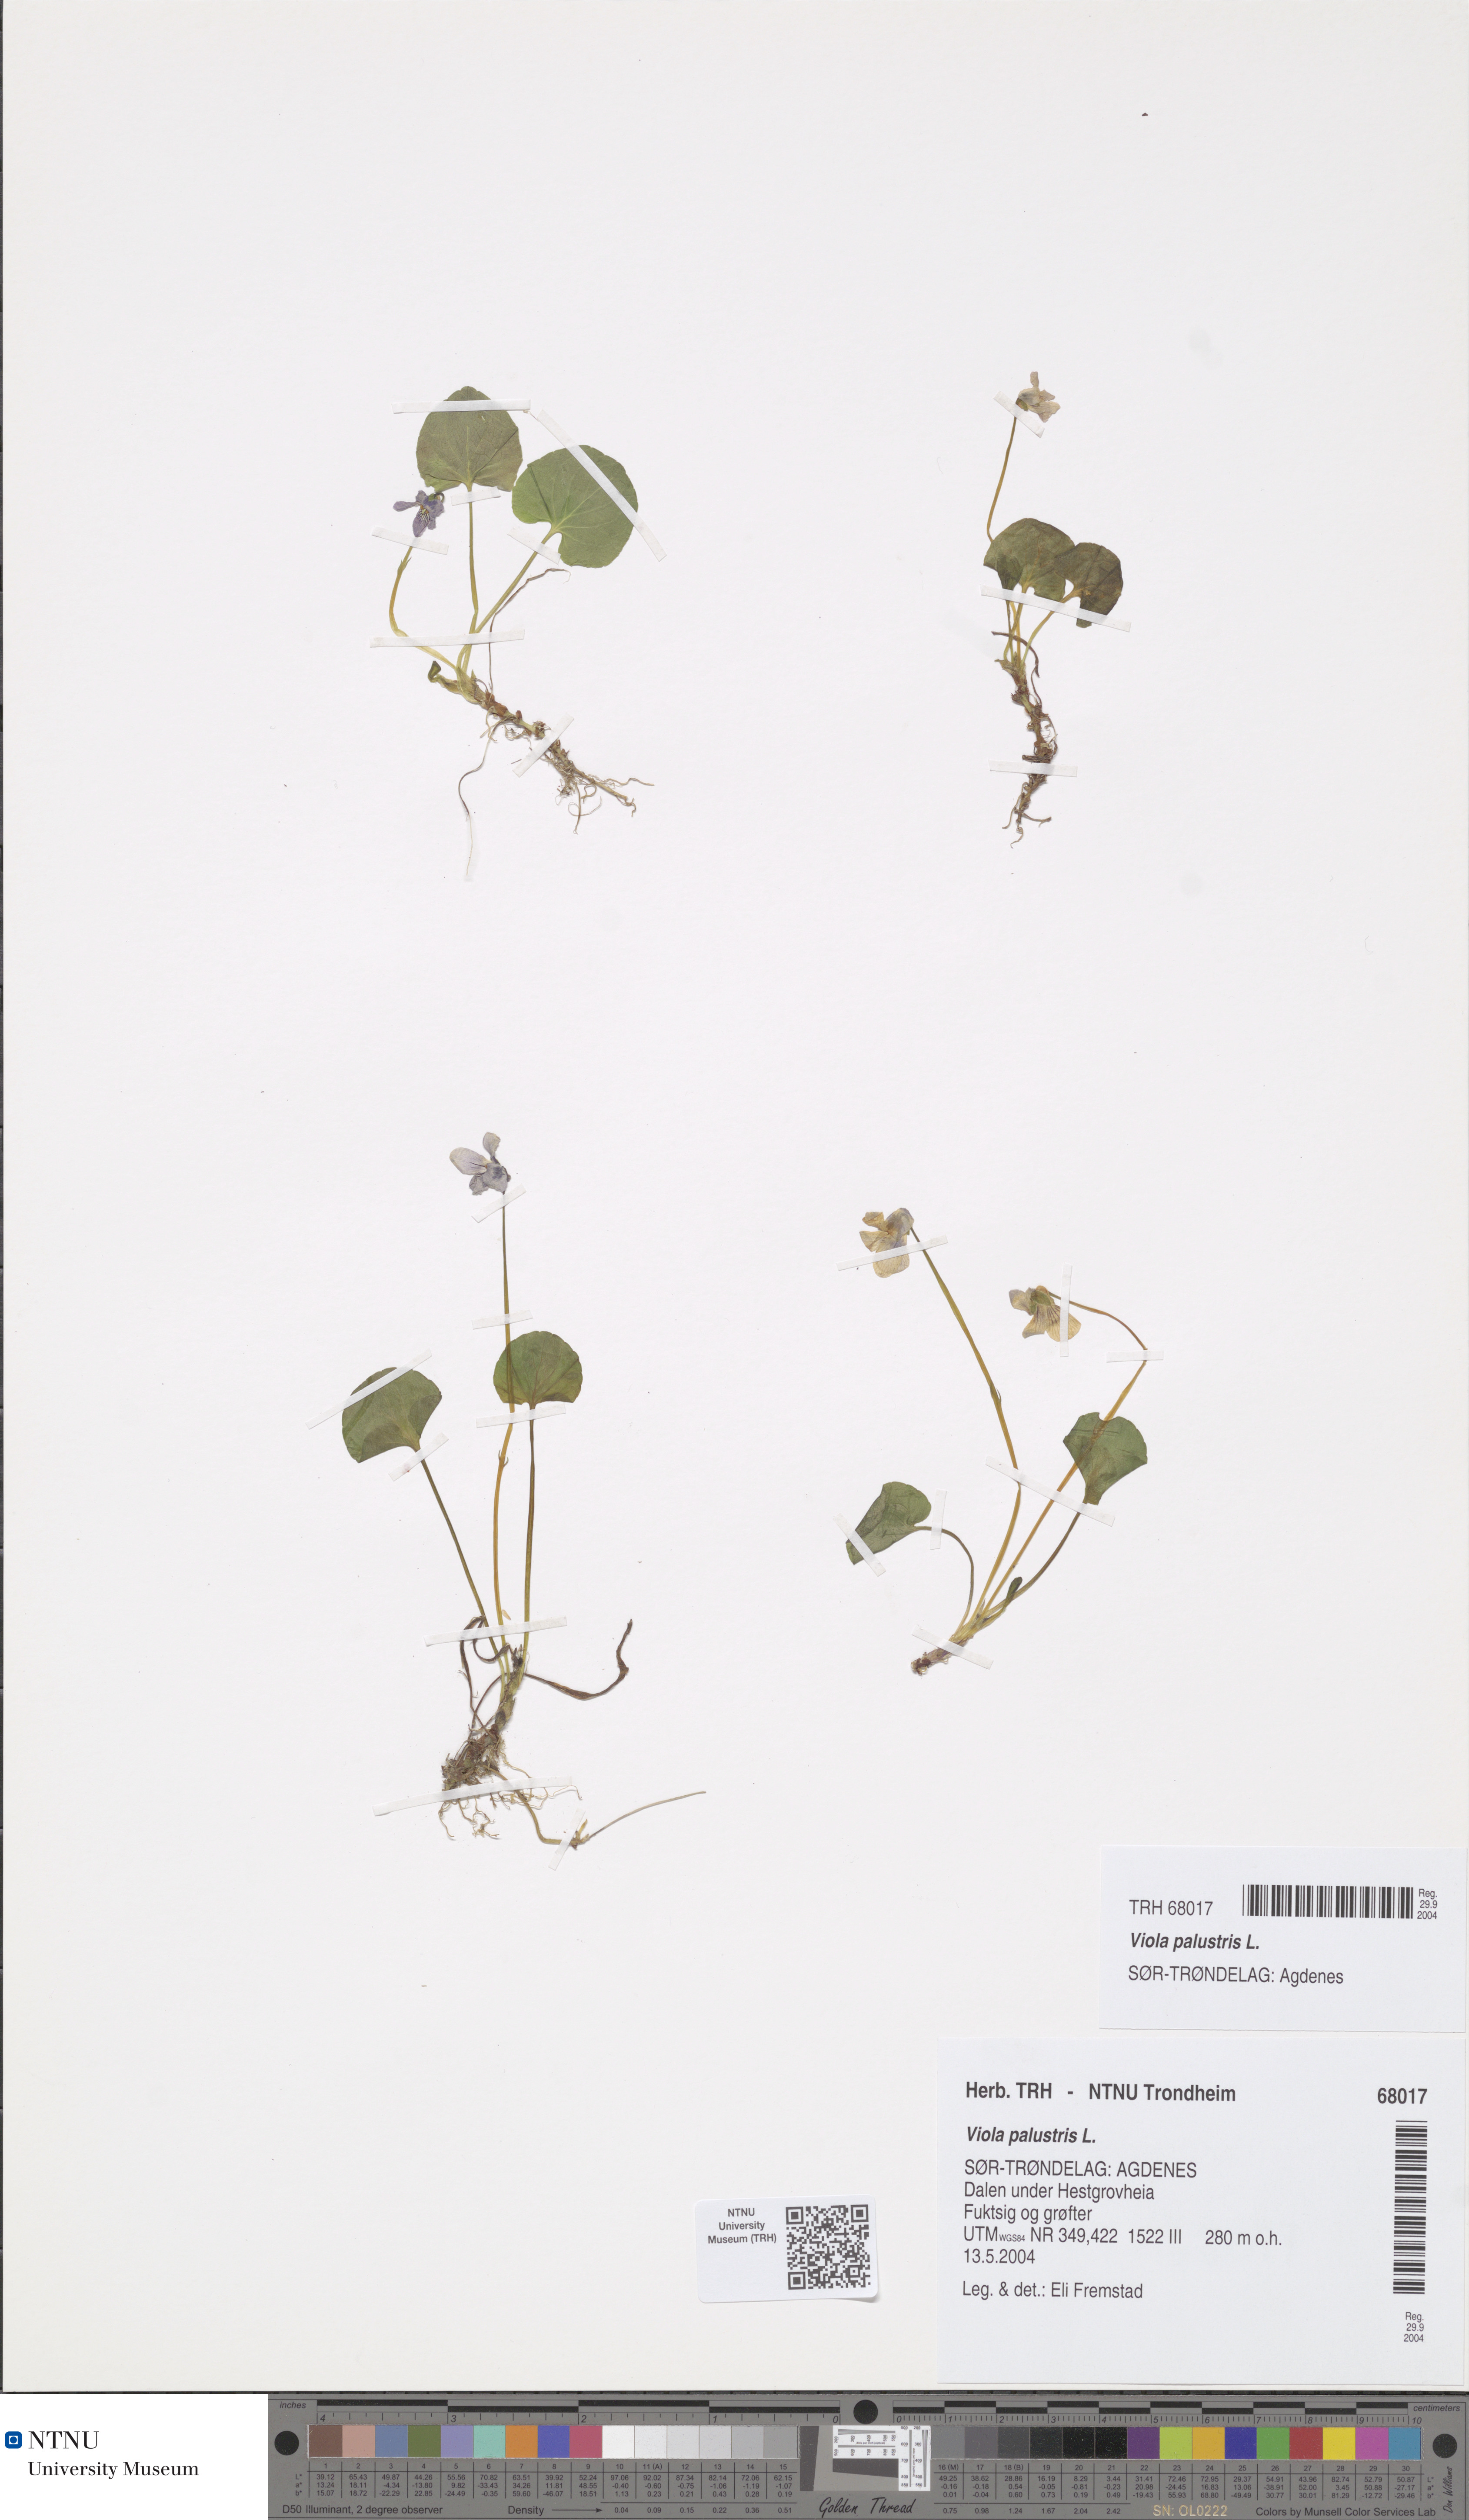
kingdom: Plantae
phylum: Tracheophyta
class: Magnoliopsida
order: Malpighiales
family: Violaceae
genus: Viola
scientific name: Viola palustris
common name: Marsh violet
